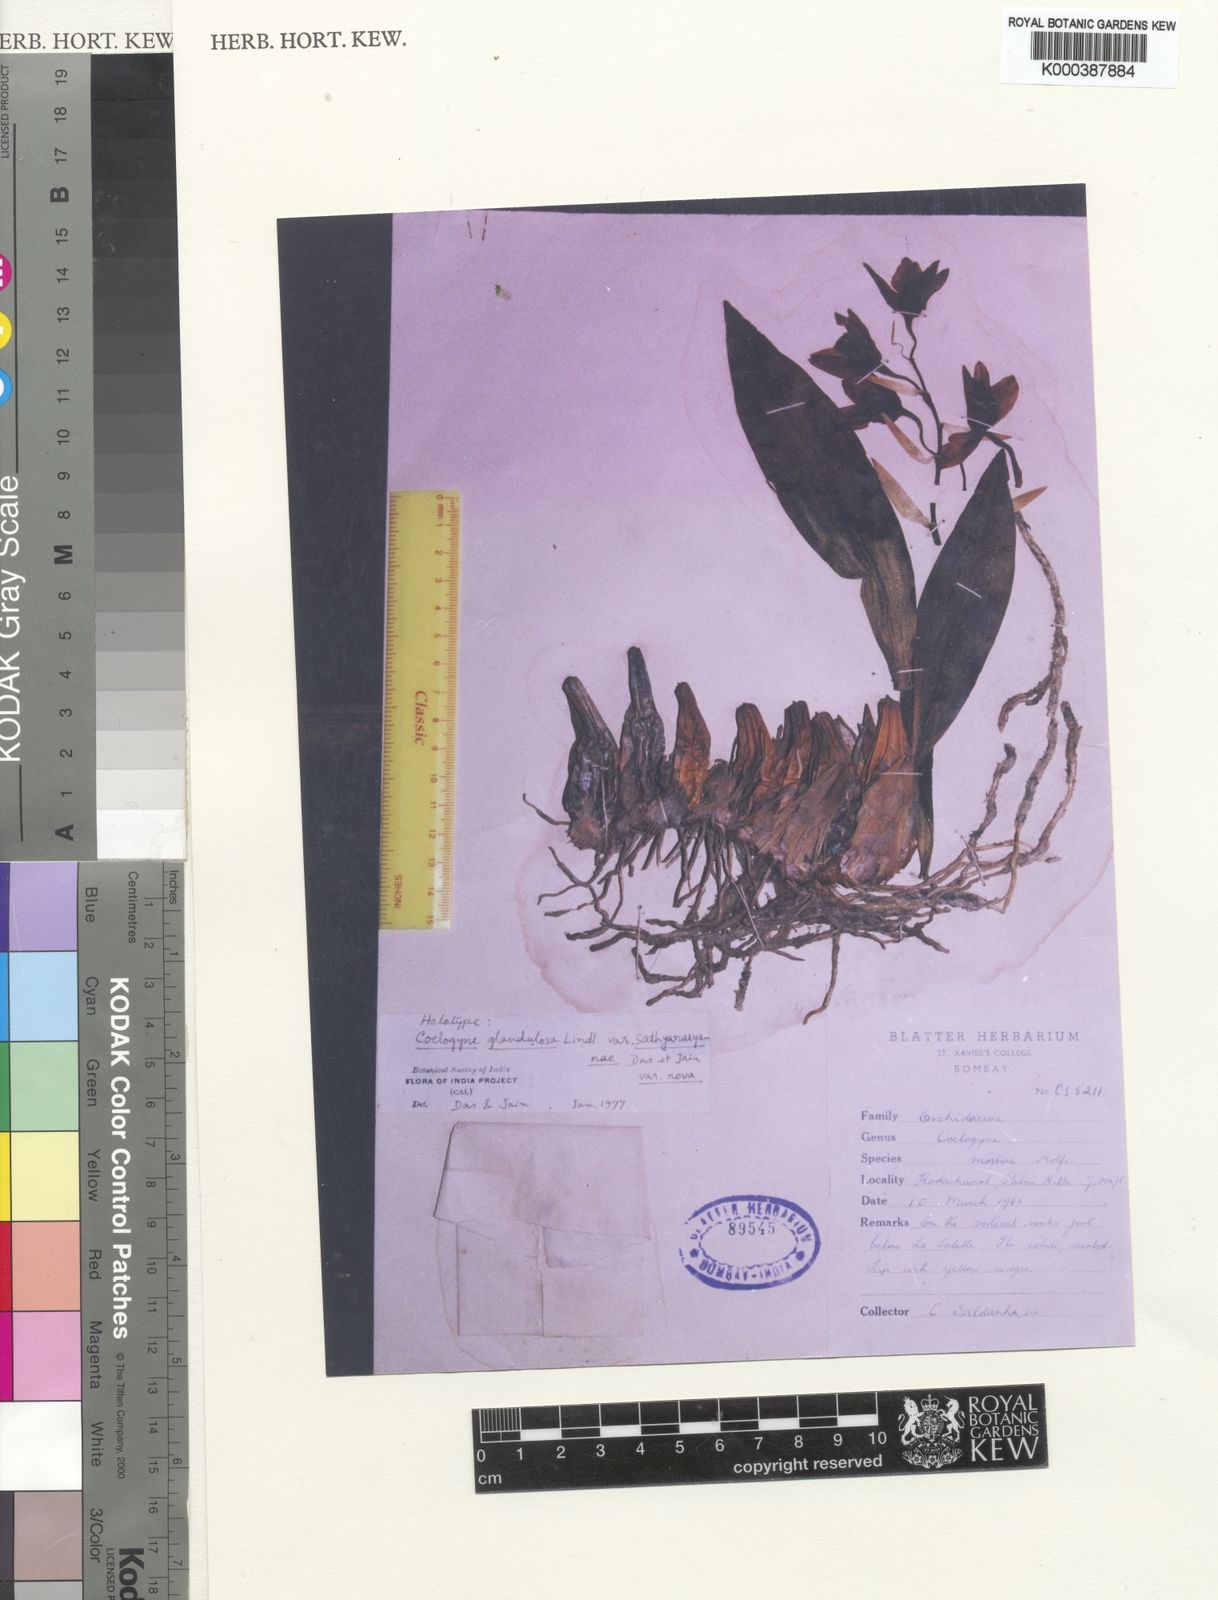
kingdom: Plantae
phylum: Tracheophyta
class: Liliopsida
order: Asparagales
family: Orchidaceae
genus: Coelogyne
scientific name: Coelogyne mossiae
